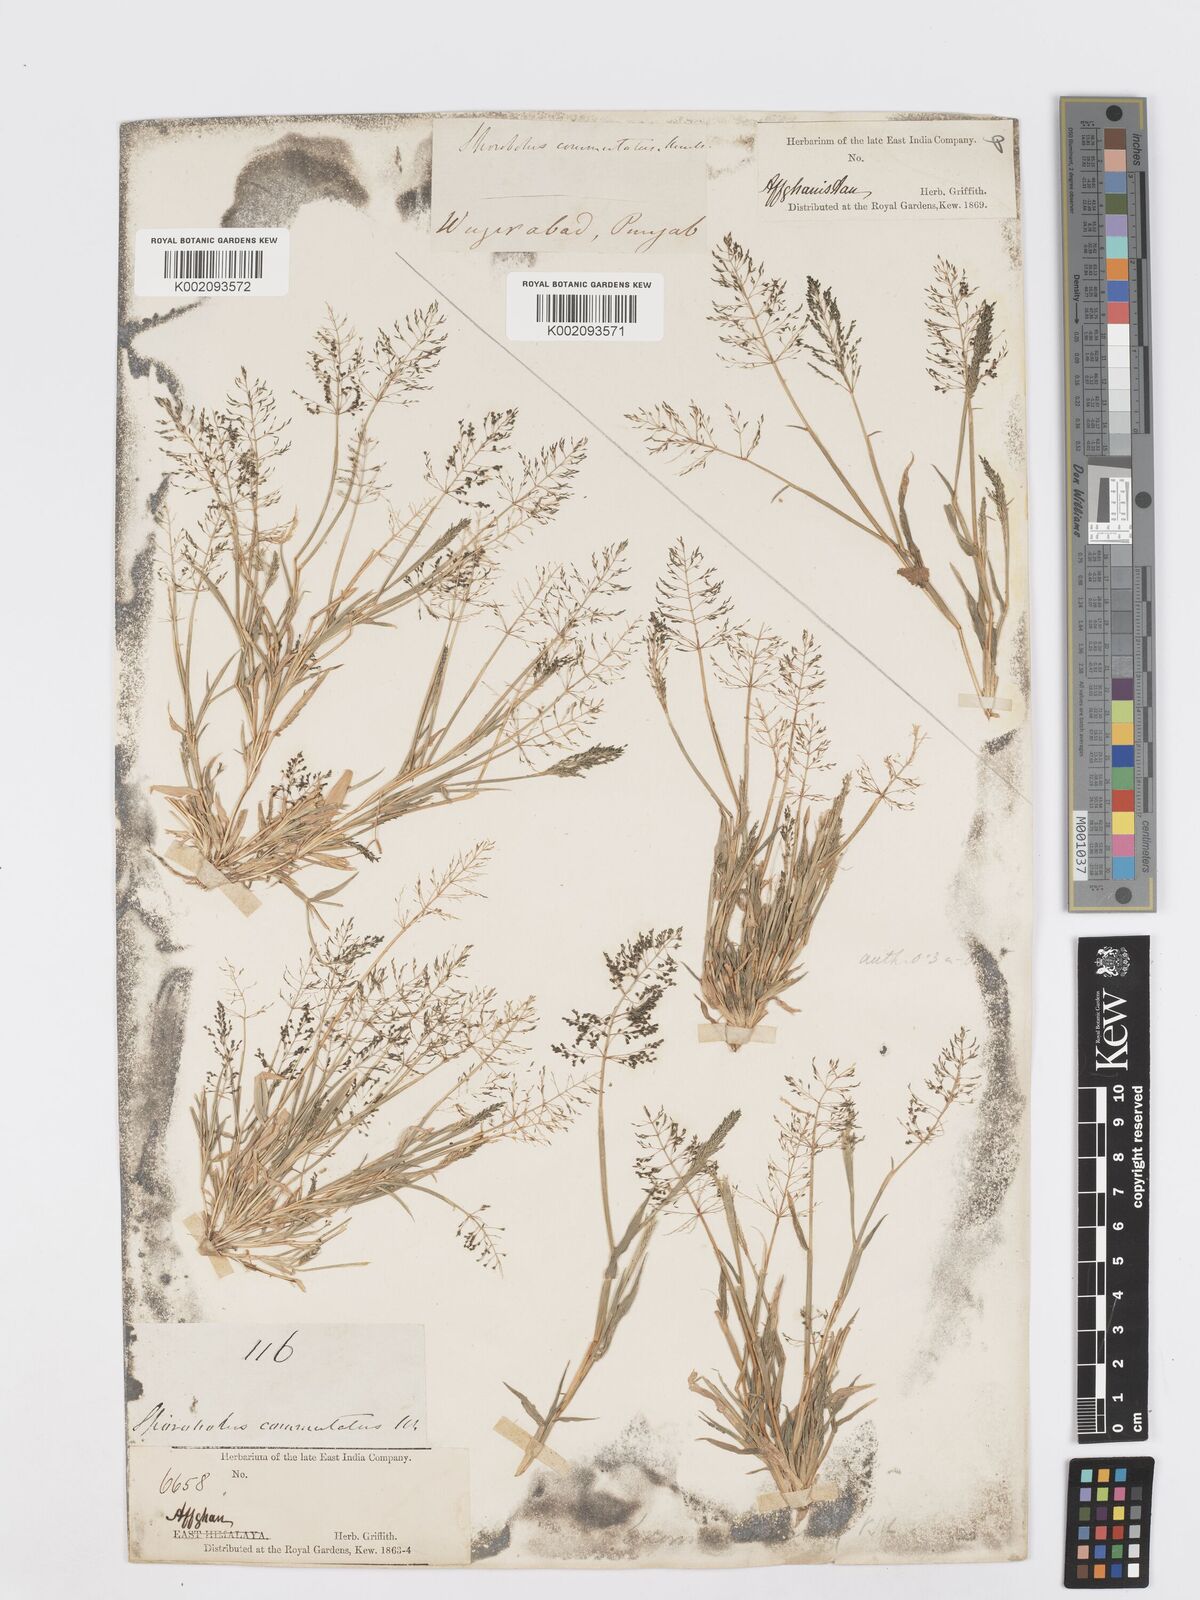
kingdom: Plantae
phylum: Tracheophyta
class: Liliopsida
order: Poales
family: Poaceae
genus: Sporobolus
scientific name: Sporobolus coromandelianus
